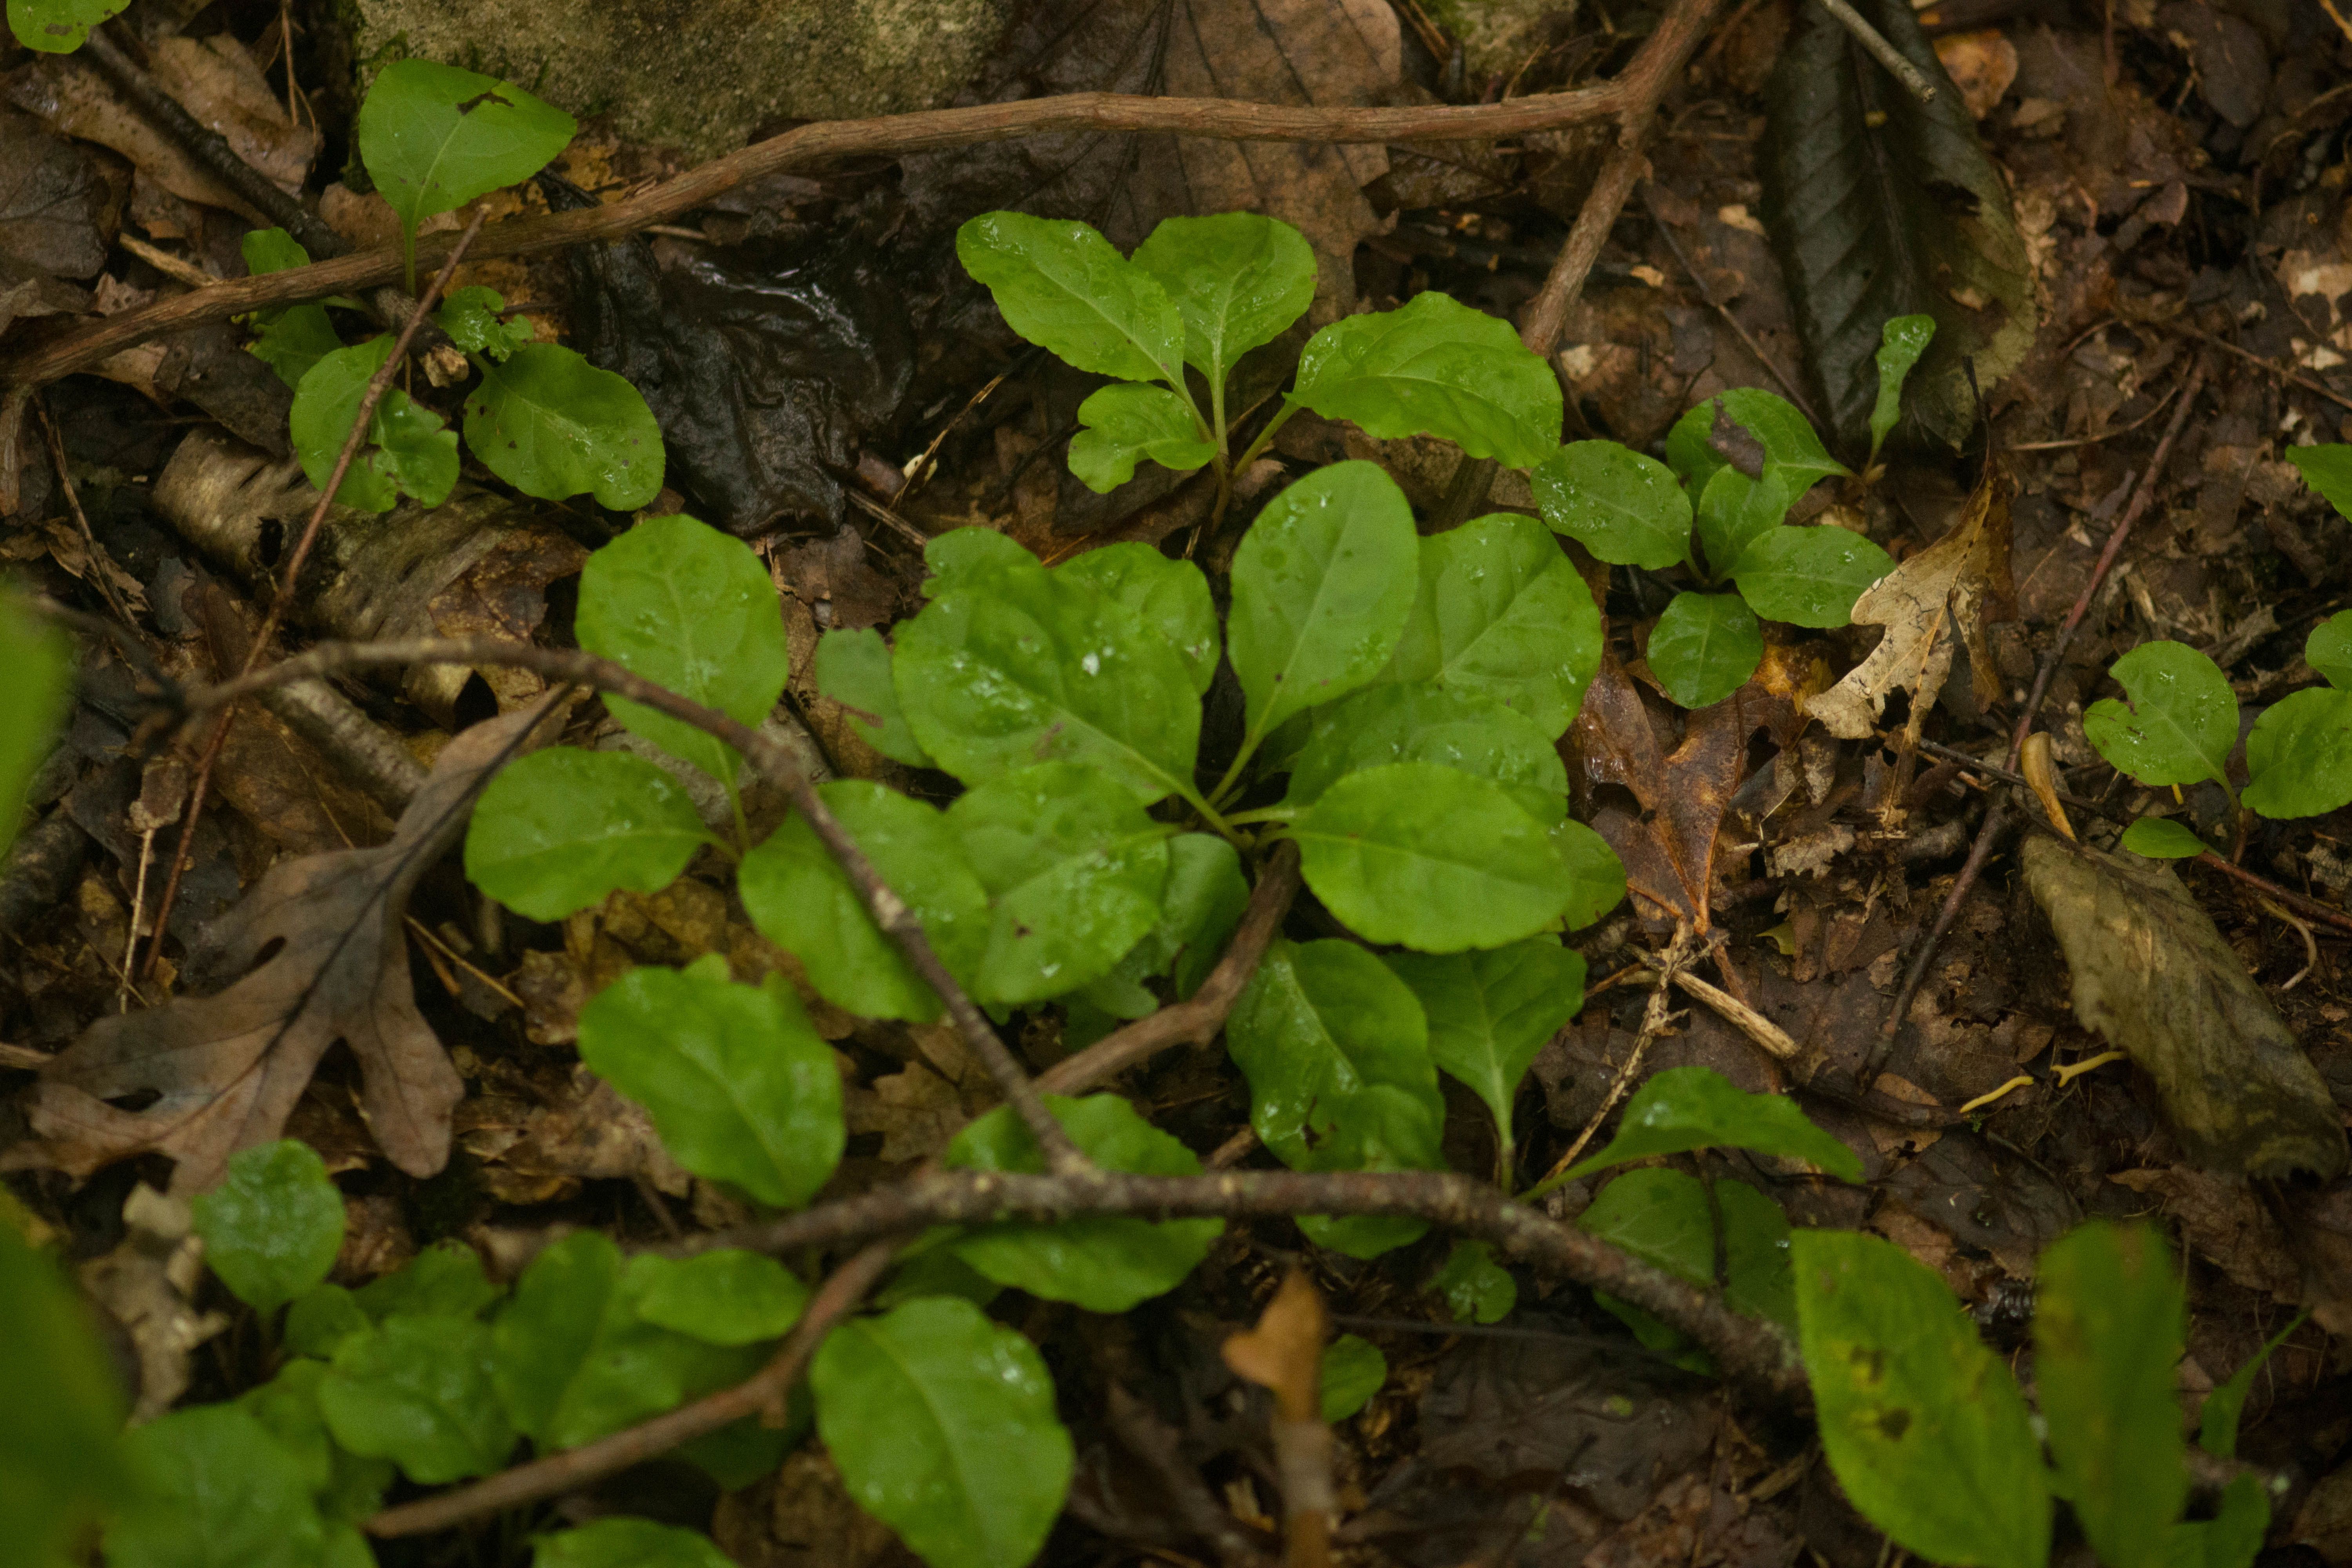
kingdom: Plantae
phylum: Tracheophyta
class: Magnoliopsida
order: Ericales
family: Ericaceae
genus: Pyrola
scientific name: Pyrola elliptica
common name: waxflower shinleaf
